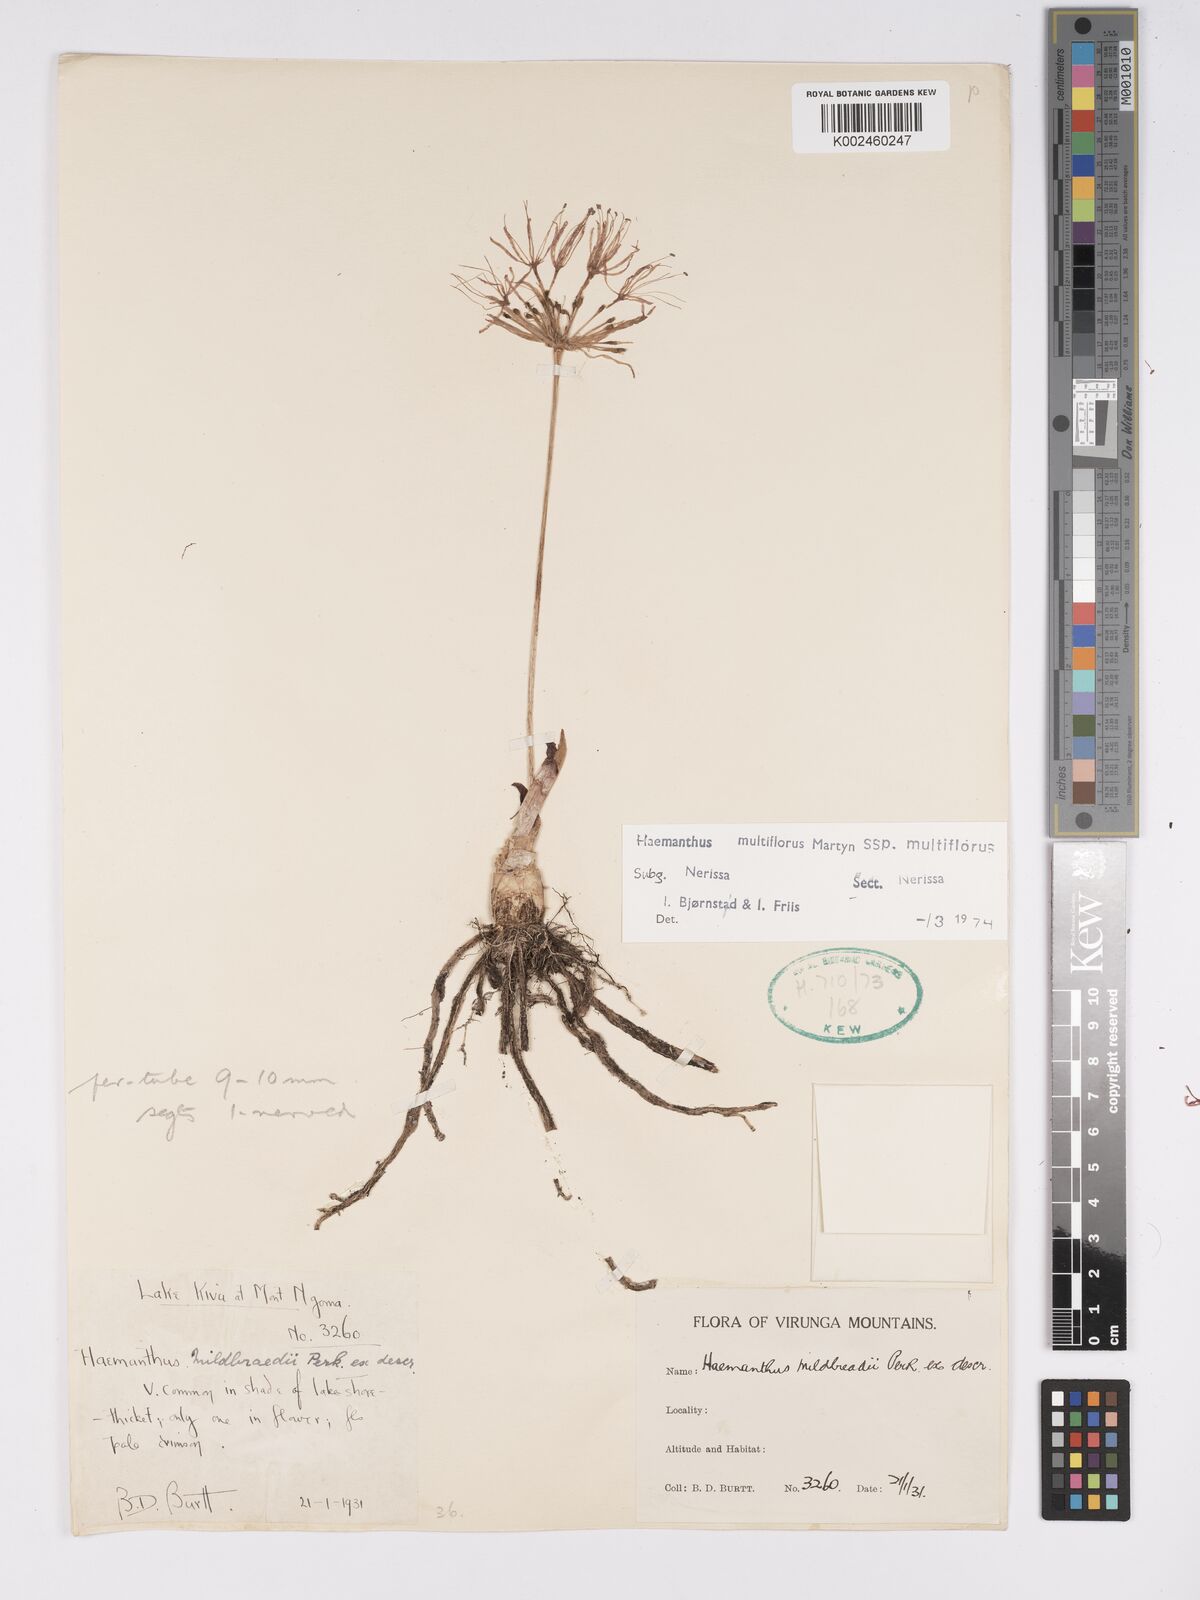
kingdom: Plantae
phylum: Tracheophyta
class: Liliopsida
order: Asparagales
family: Amaryllidaceae
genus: Scadoxus
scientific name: Scadoxus multiflorus
